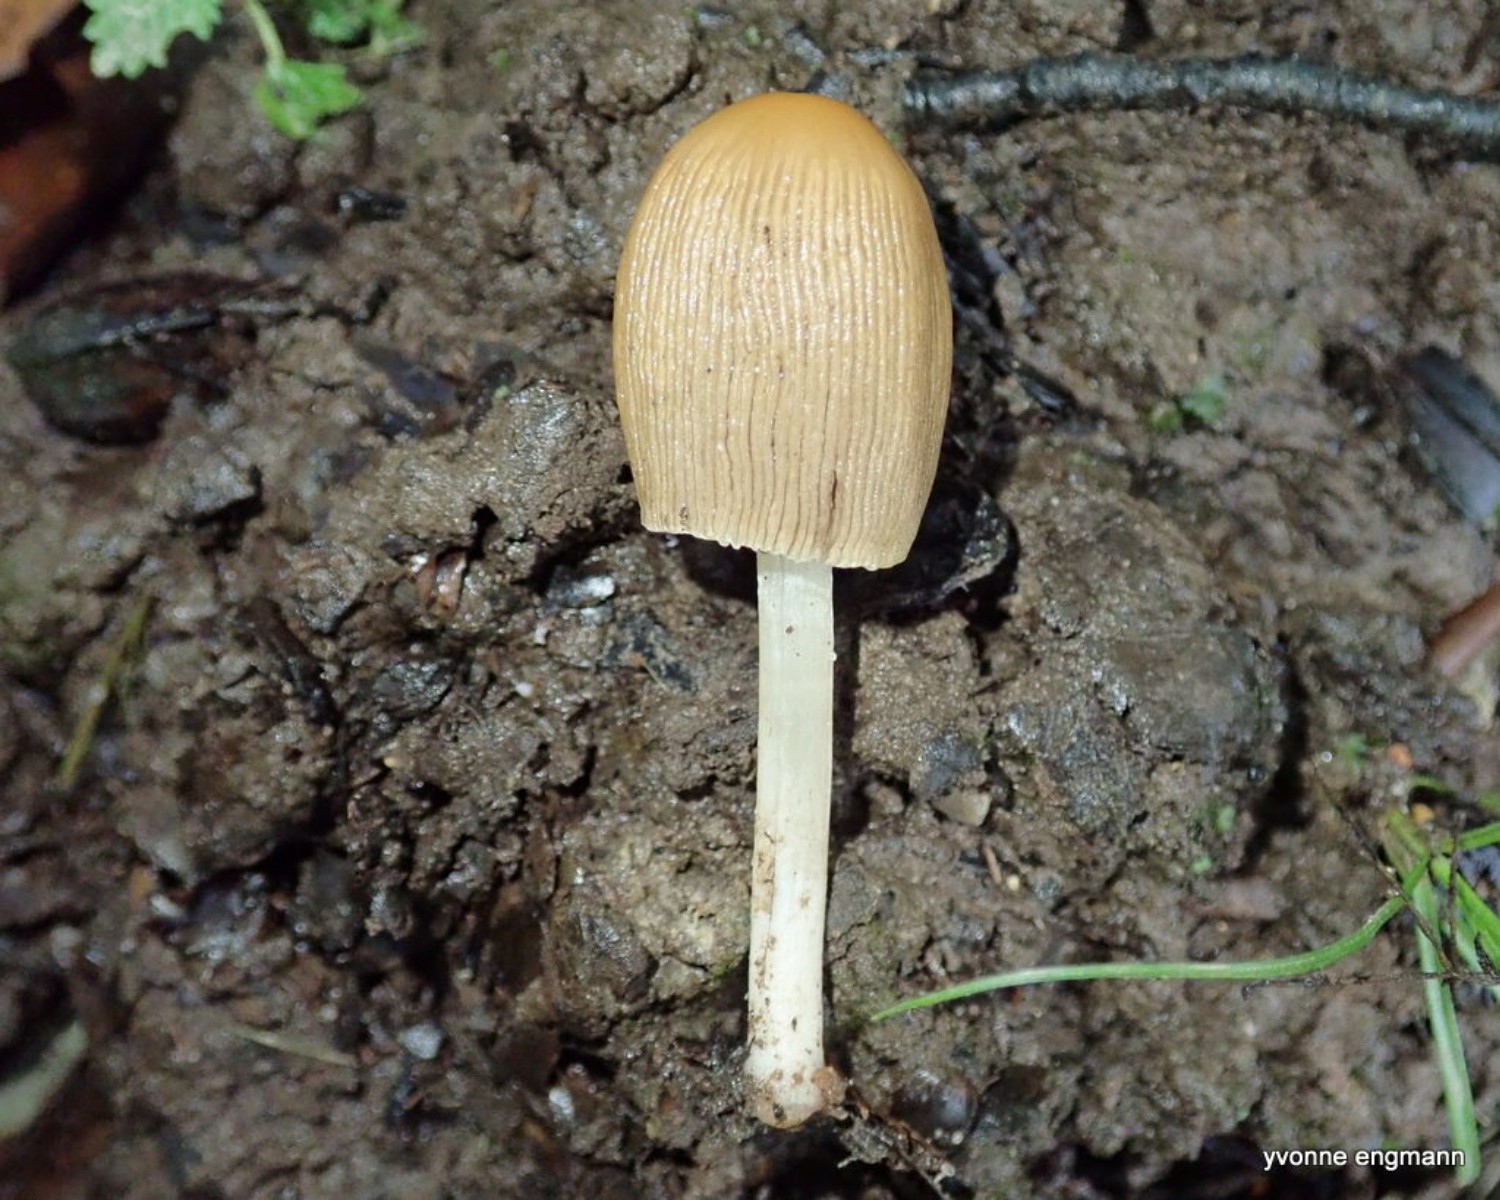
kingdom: Fungi
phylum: Basidiomycota
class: Agaricomycetes
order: Agaricales
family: Psathyrellaceae
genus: Parasola
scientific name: Parasola
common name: hjulhat
